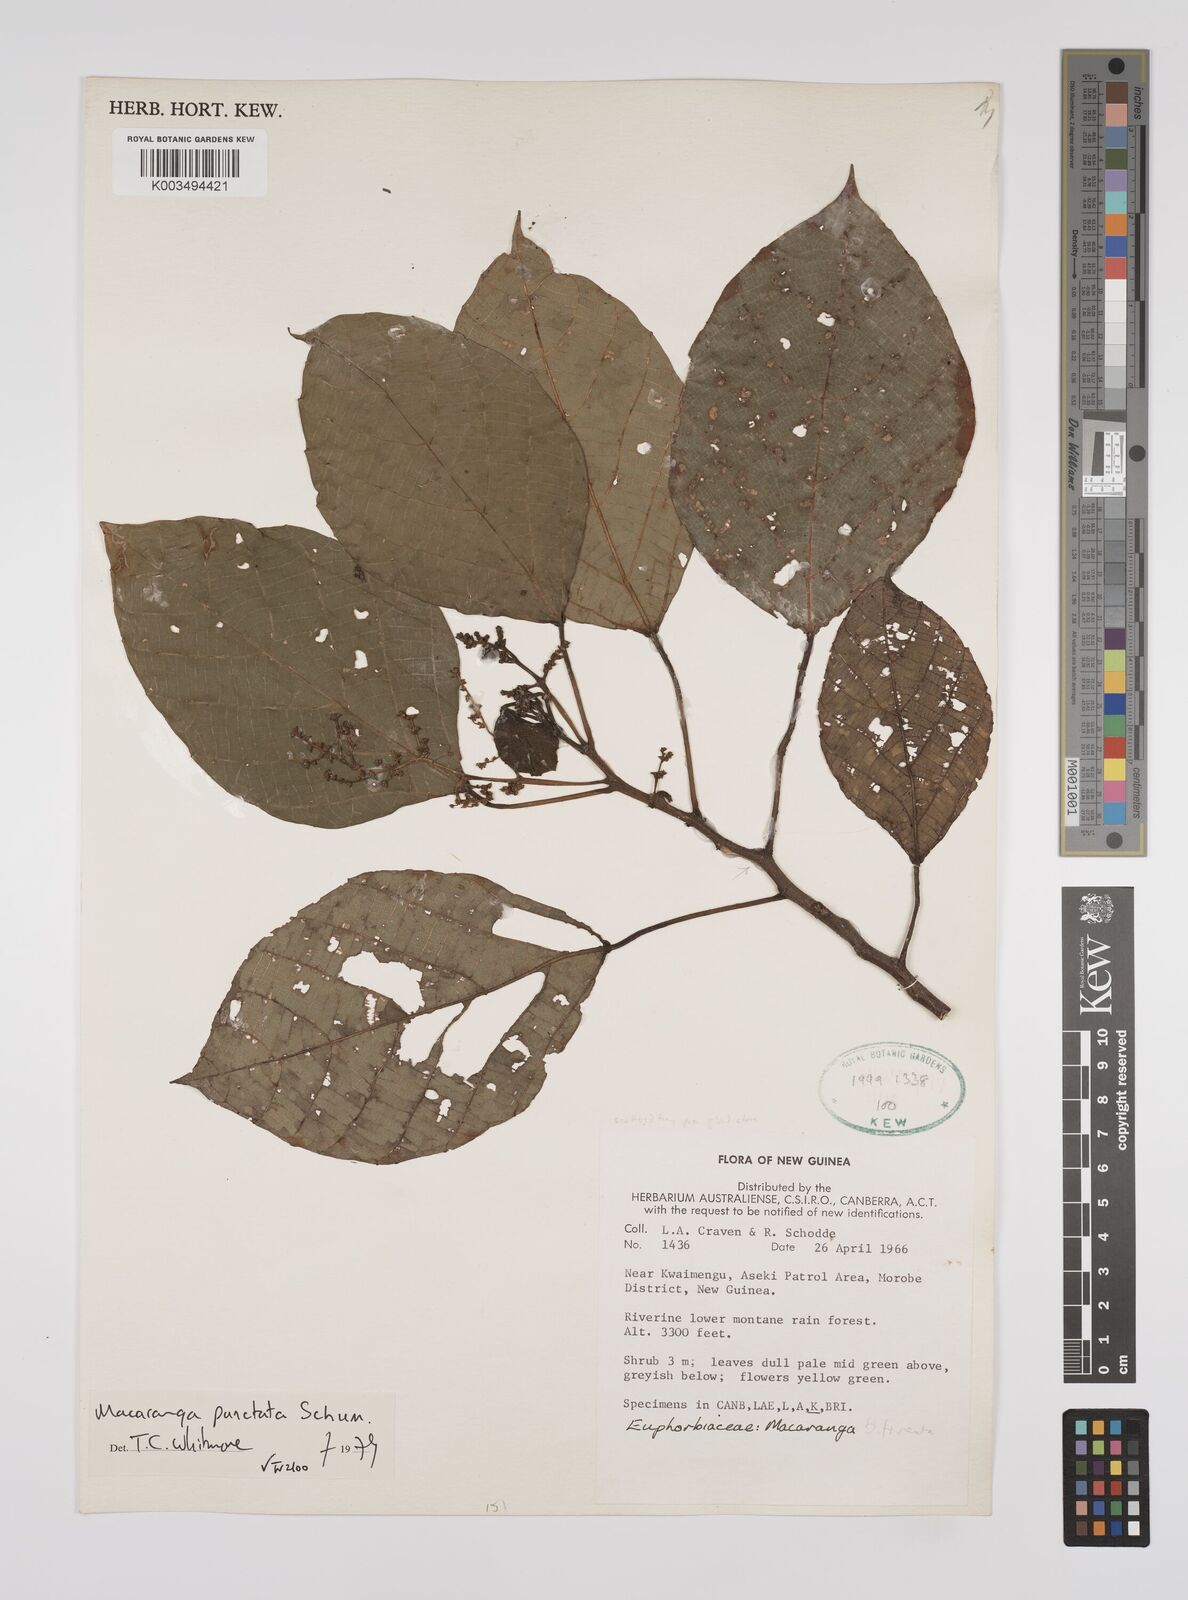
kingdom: Plantae
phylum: Tracheophyta
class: Magnoliopsida
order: Malpighiales
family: Euphorbiaceae
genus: Macaranga
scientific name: Macaranga punctata
